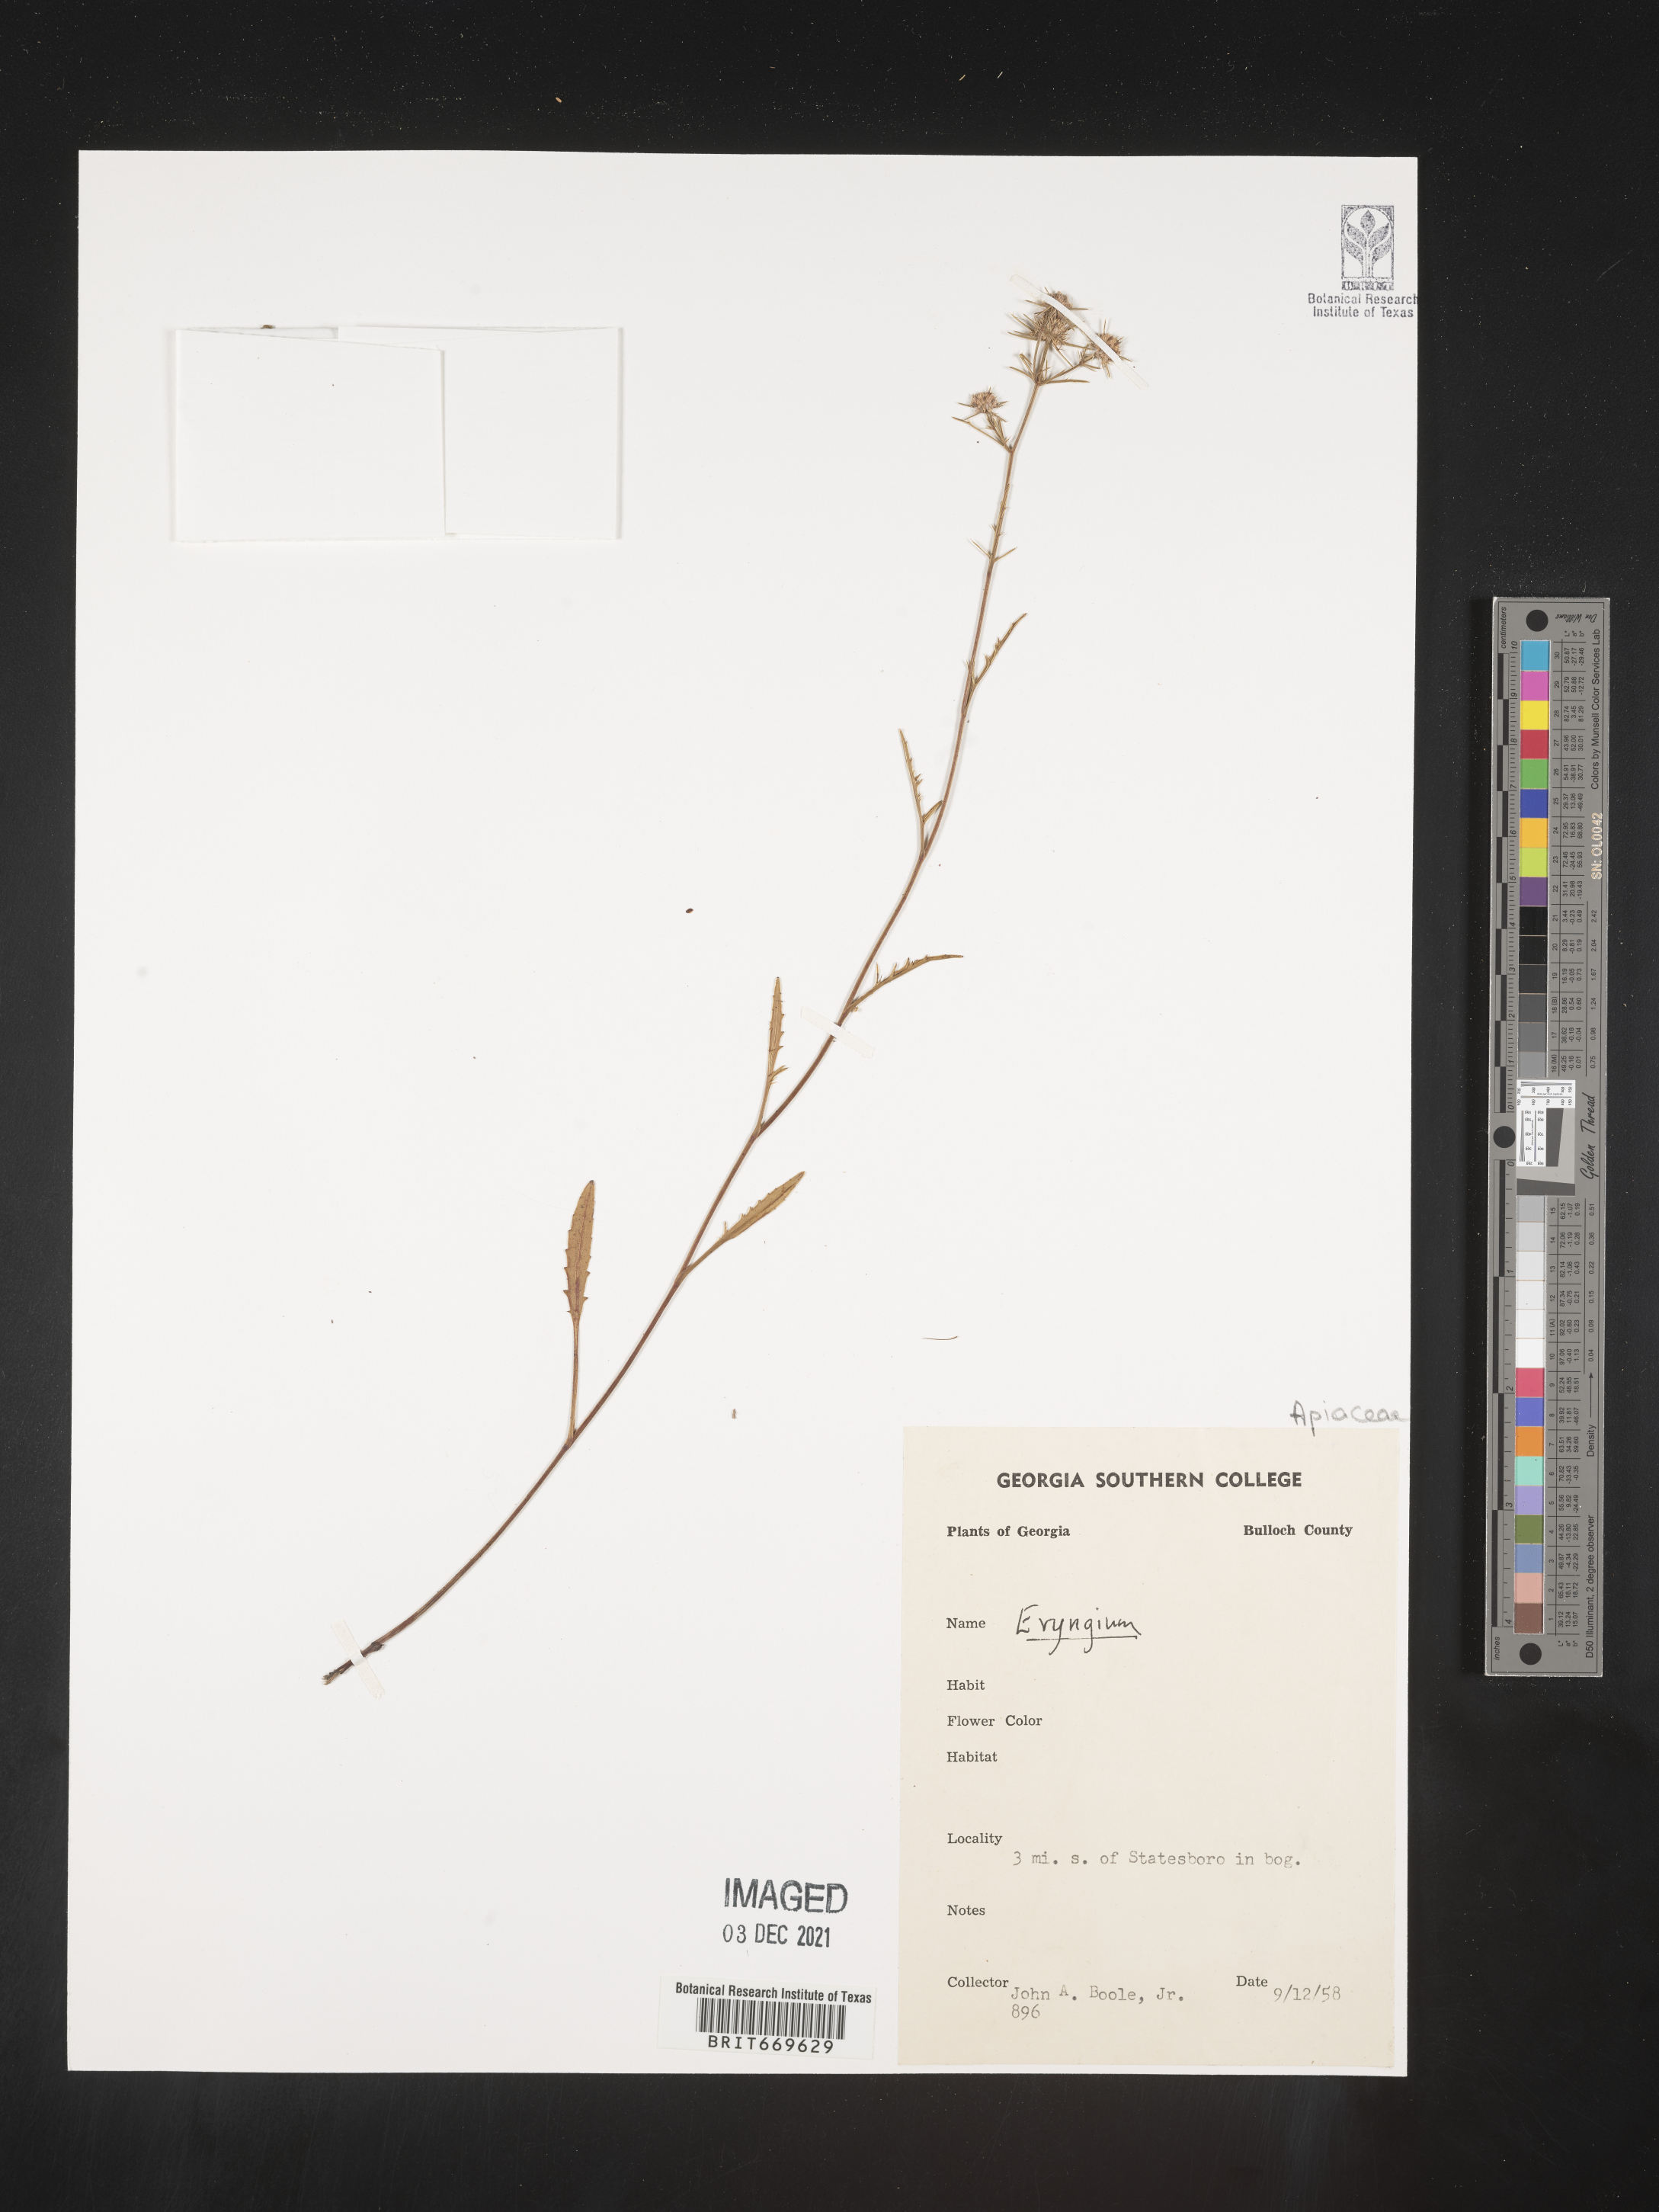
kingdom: Plantae
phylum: Tracheophyta
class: Magnoliopsida
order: Apiales
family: Apiaceae
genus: Eryngium
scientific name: Eryngium
